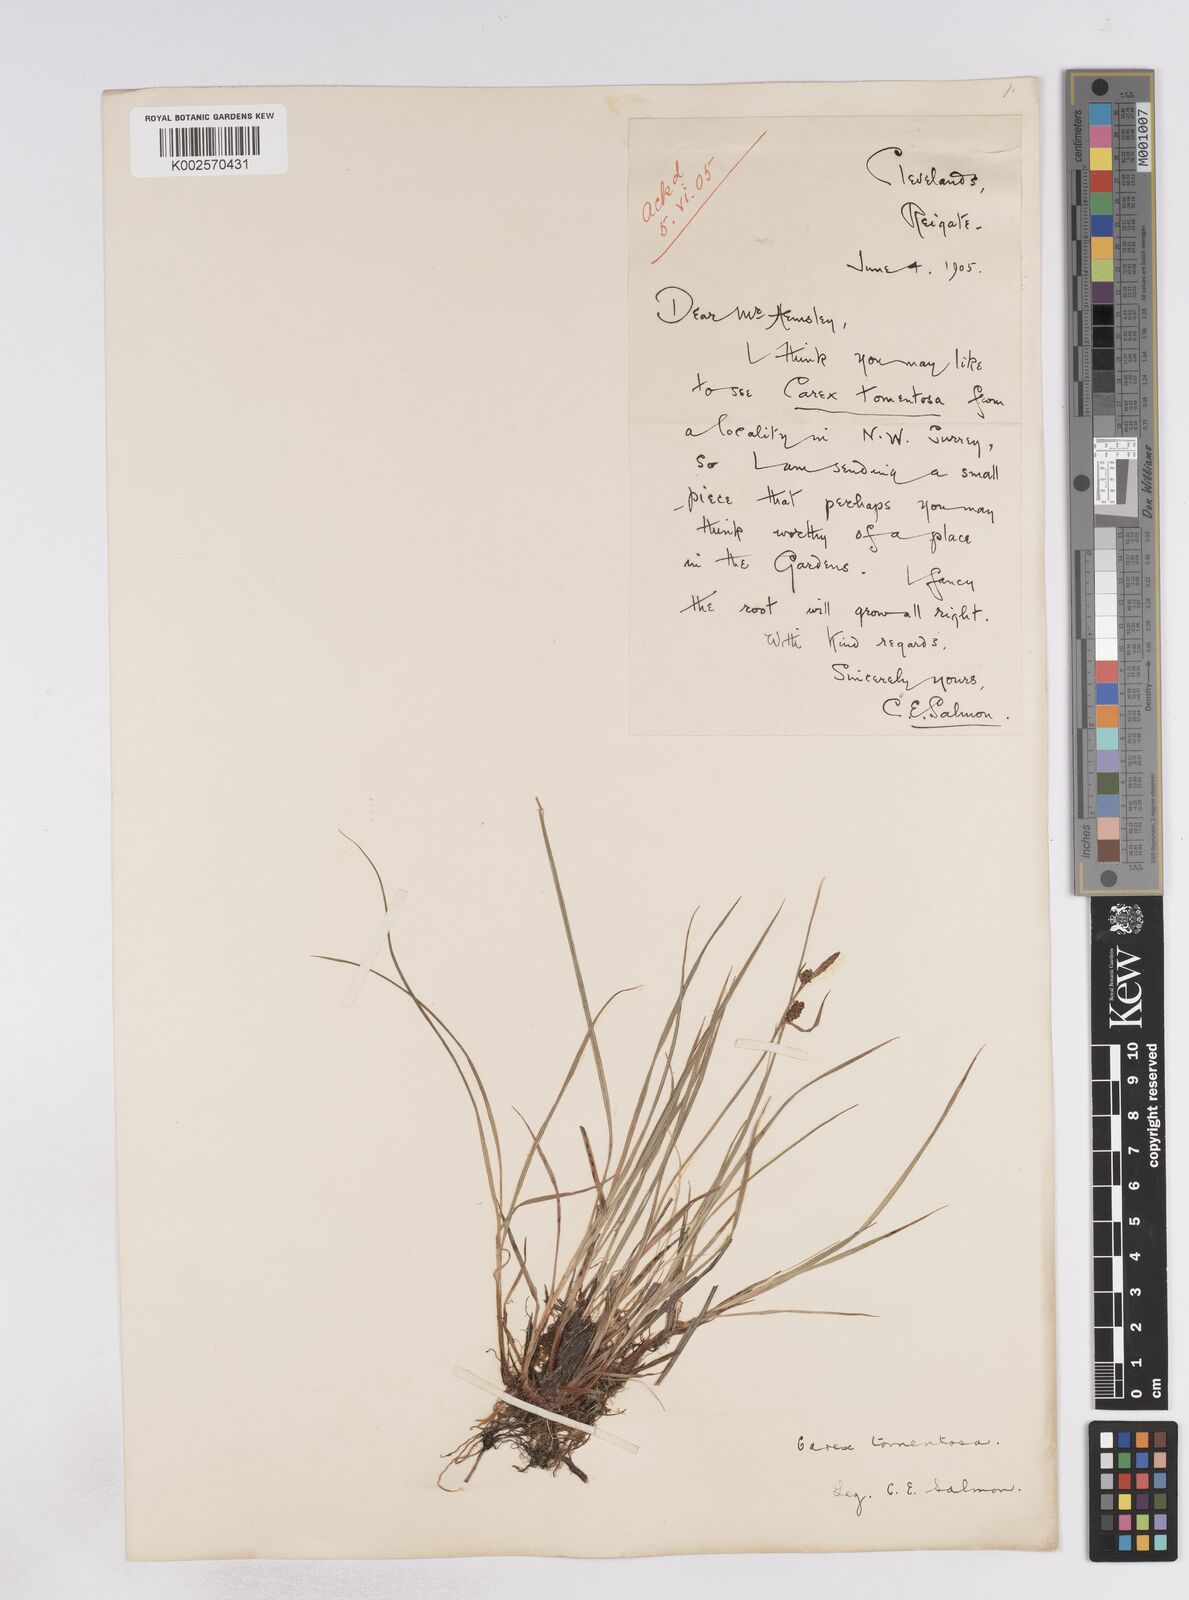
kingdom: Plantae
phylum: Tracheophyta
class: Liliopsida
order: Poales
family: Cyperaceae
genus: Carex
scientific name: Carex montana
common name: Soft-leaved sedge
